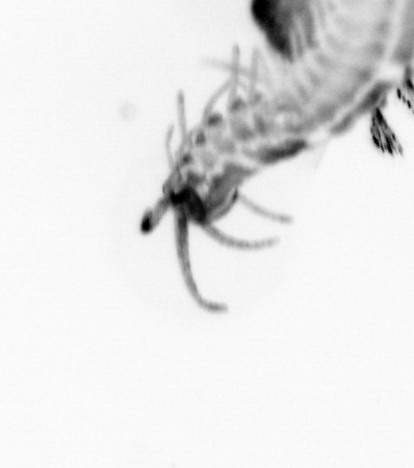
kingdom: Animalia
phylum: Annelida
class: Polychaeta
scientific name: Polychaeta
